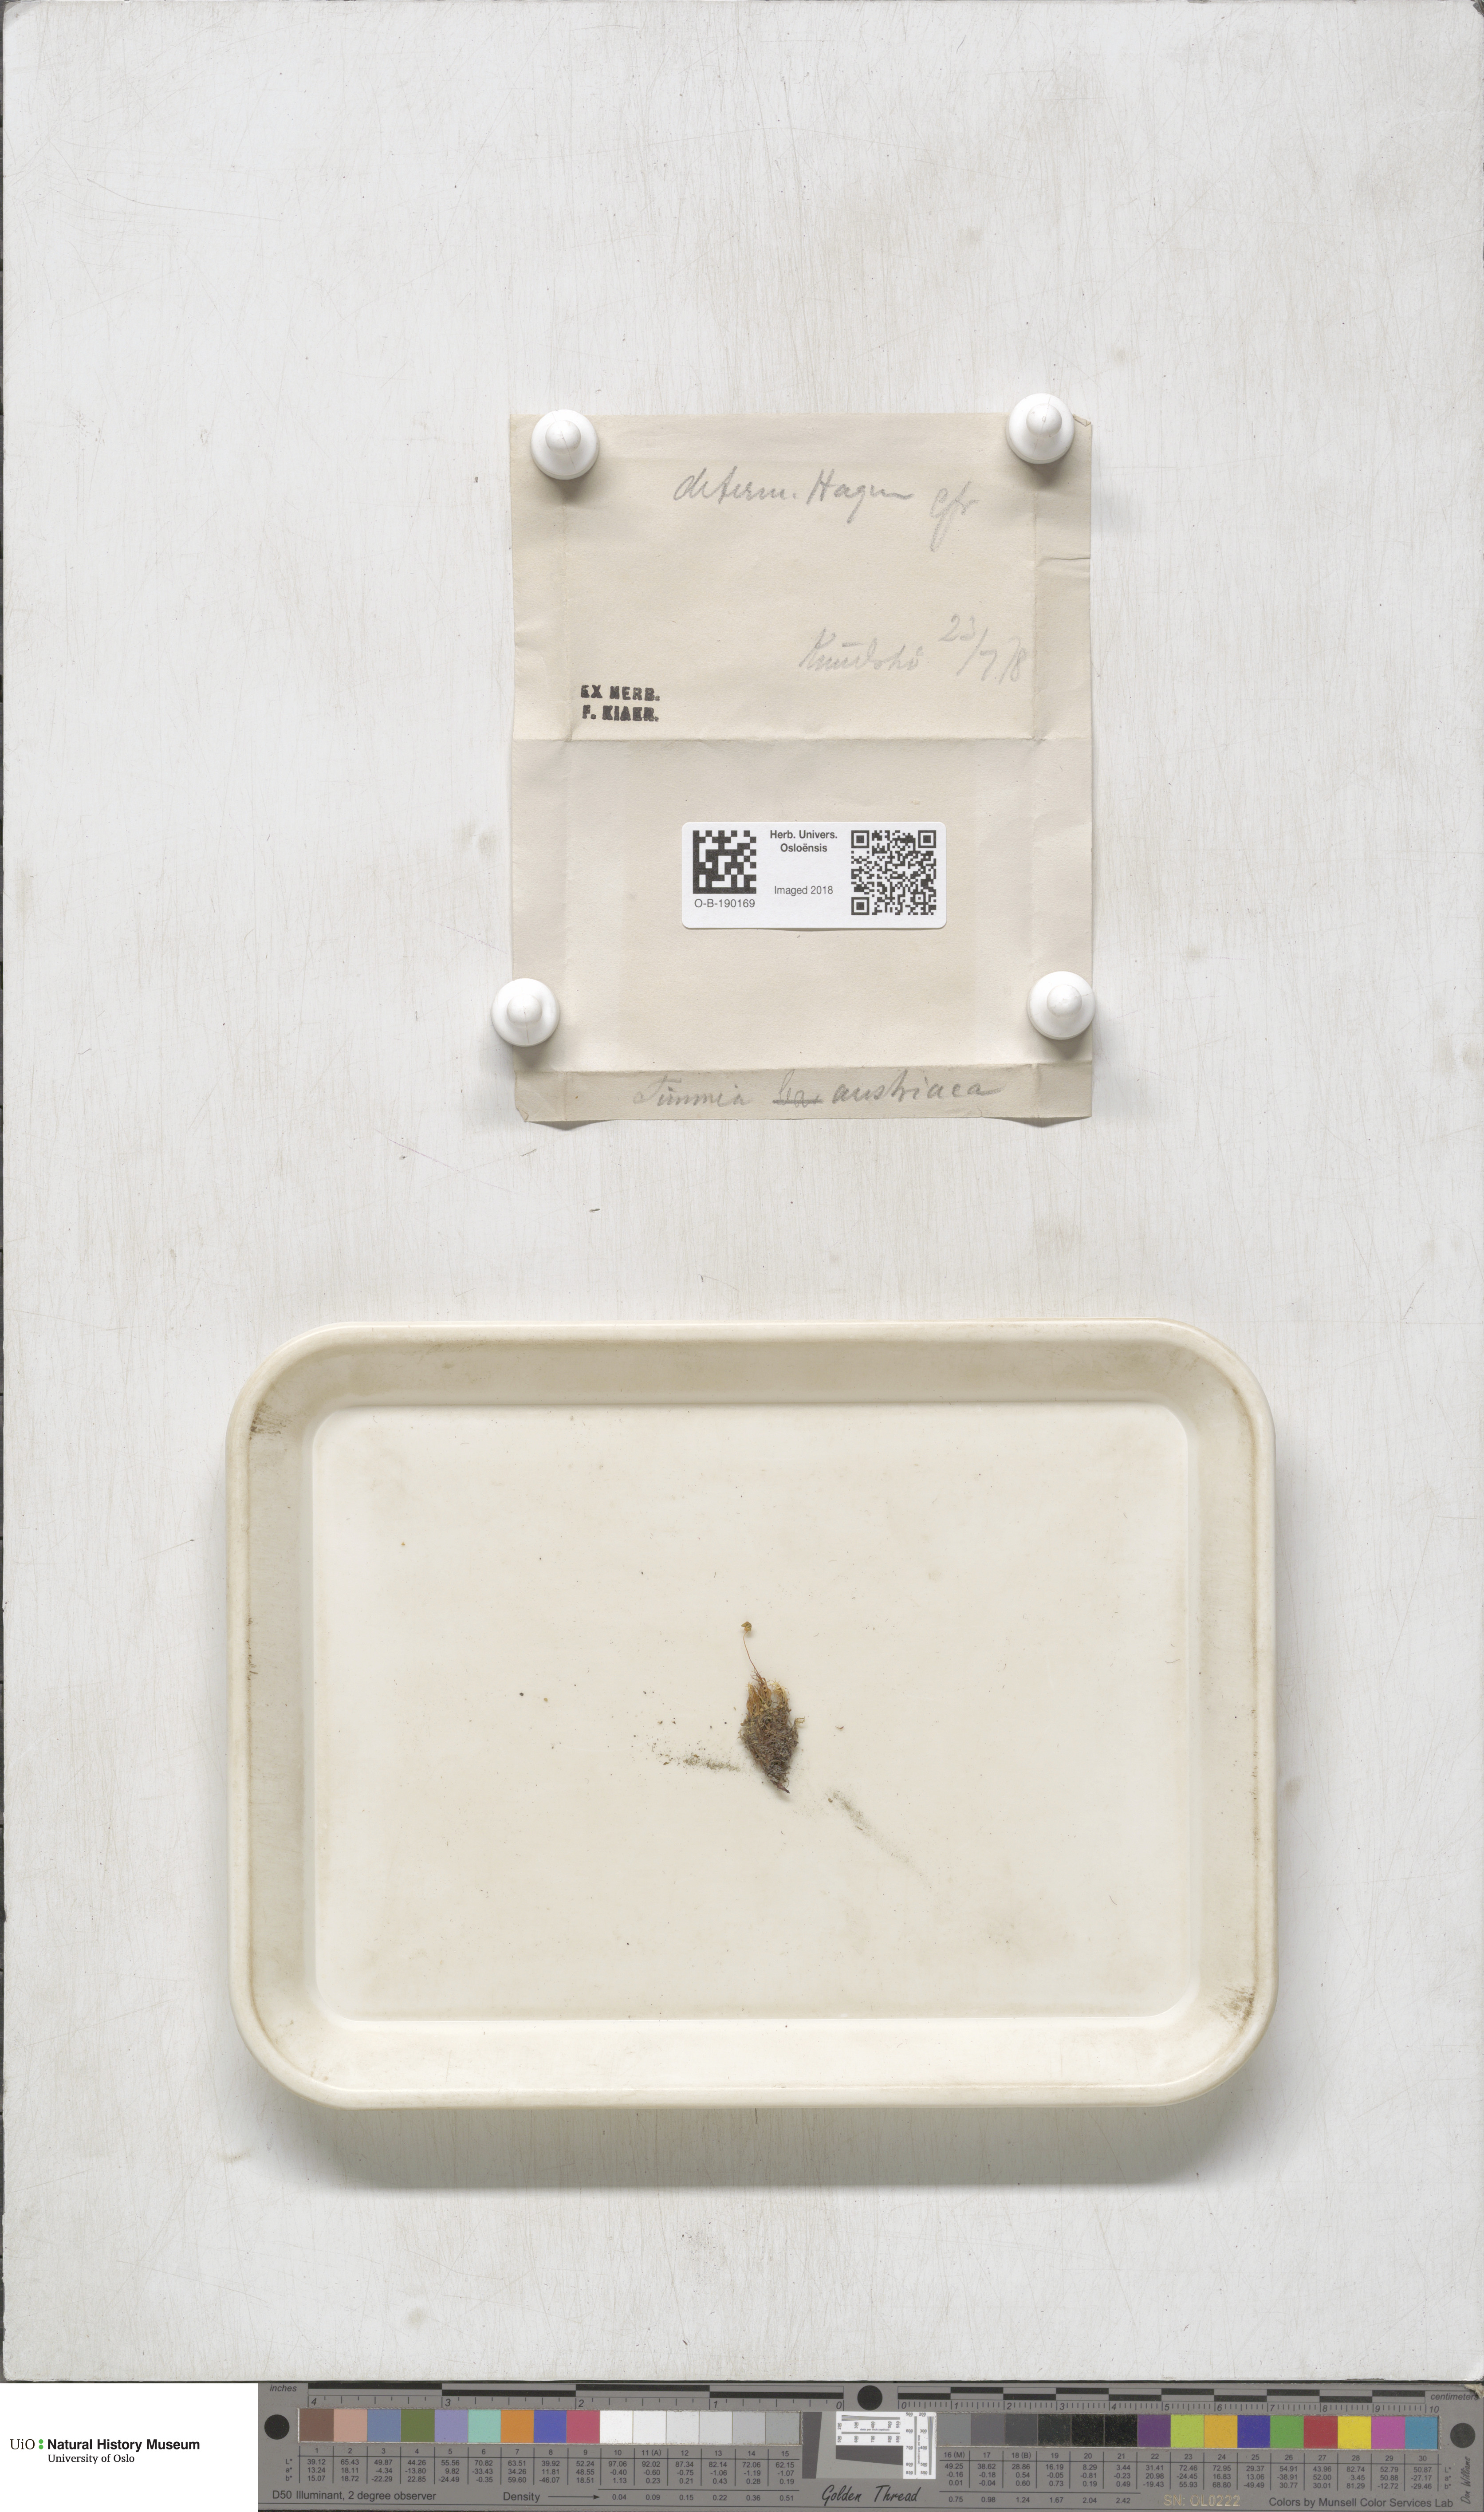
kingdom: Plantae
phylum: Bryophyta
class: Bryopsida
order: Timmiales
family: Timmiaceae
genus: Timmia
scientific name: Timmia austriaca
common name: Austrian timmia
